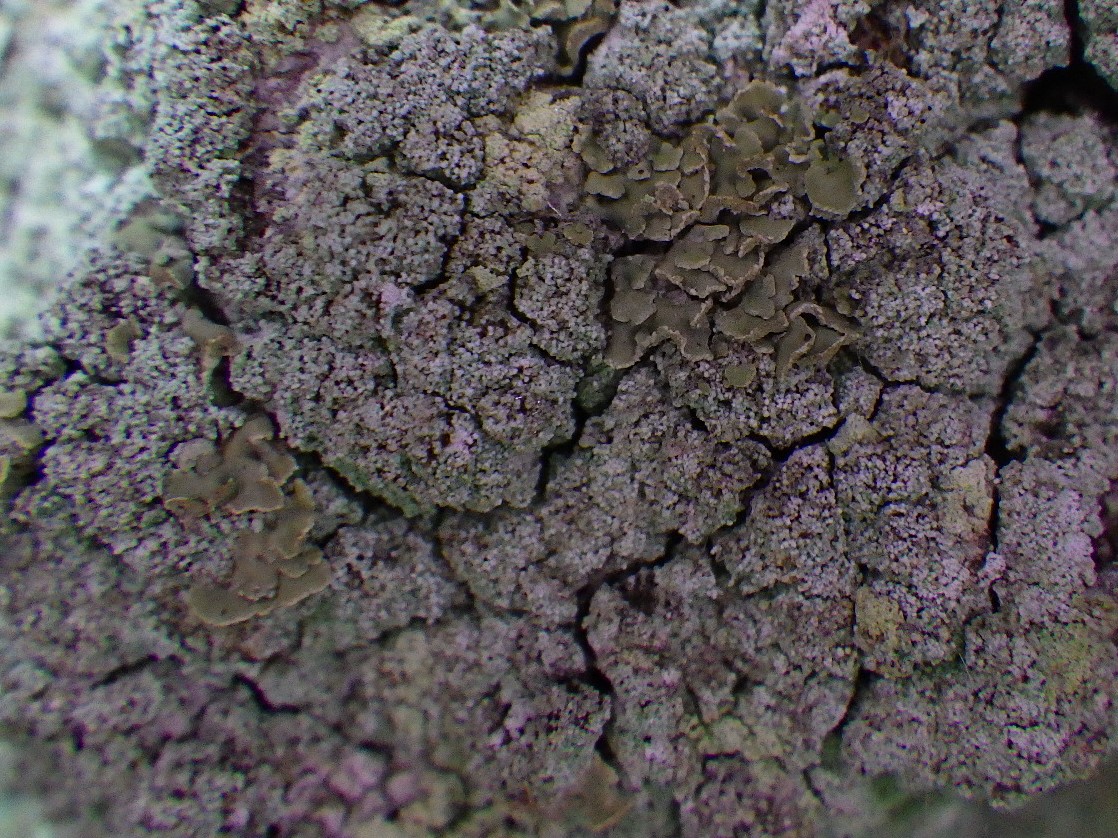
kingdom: Fungi
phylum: Ascomycota
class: Lecanoromycetes
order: Umbilicariales
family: Ophioparmaceae
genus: Hypocenomyce
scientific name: Hypocenomyce scalaris
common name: småskællet muslinglav
